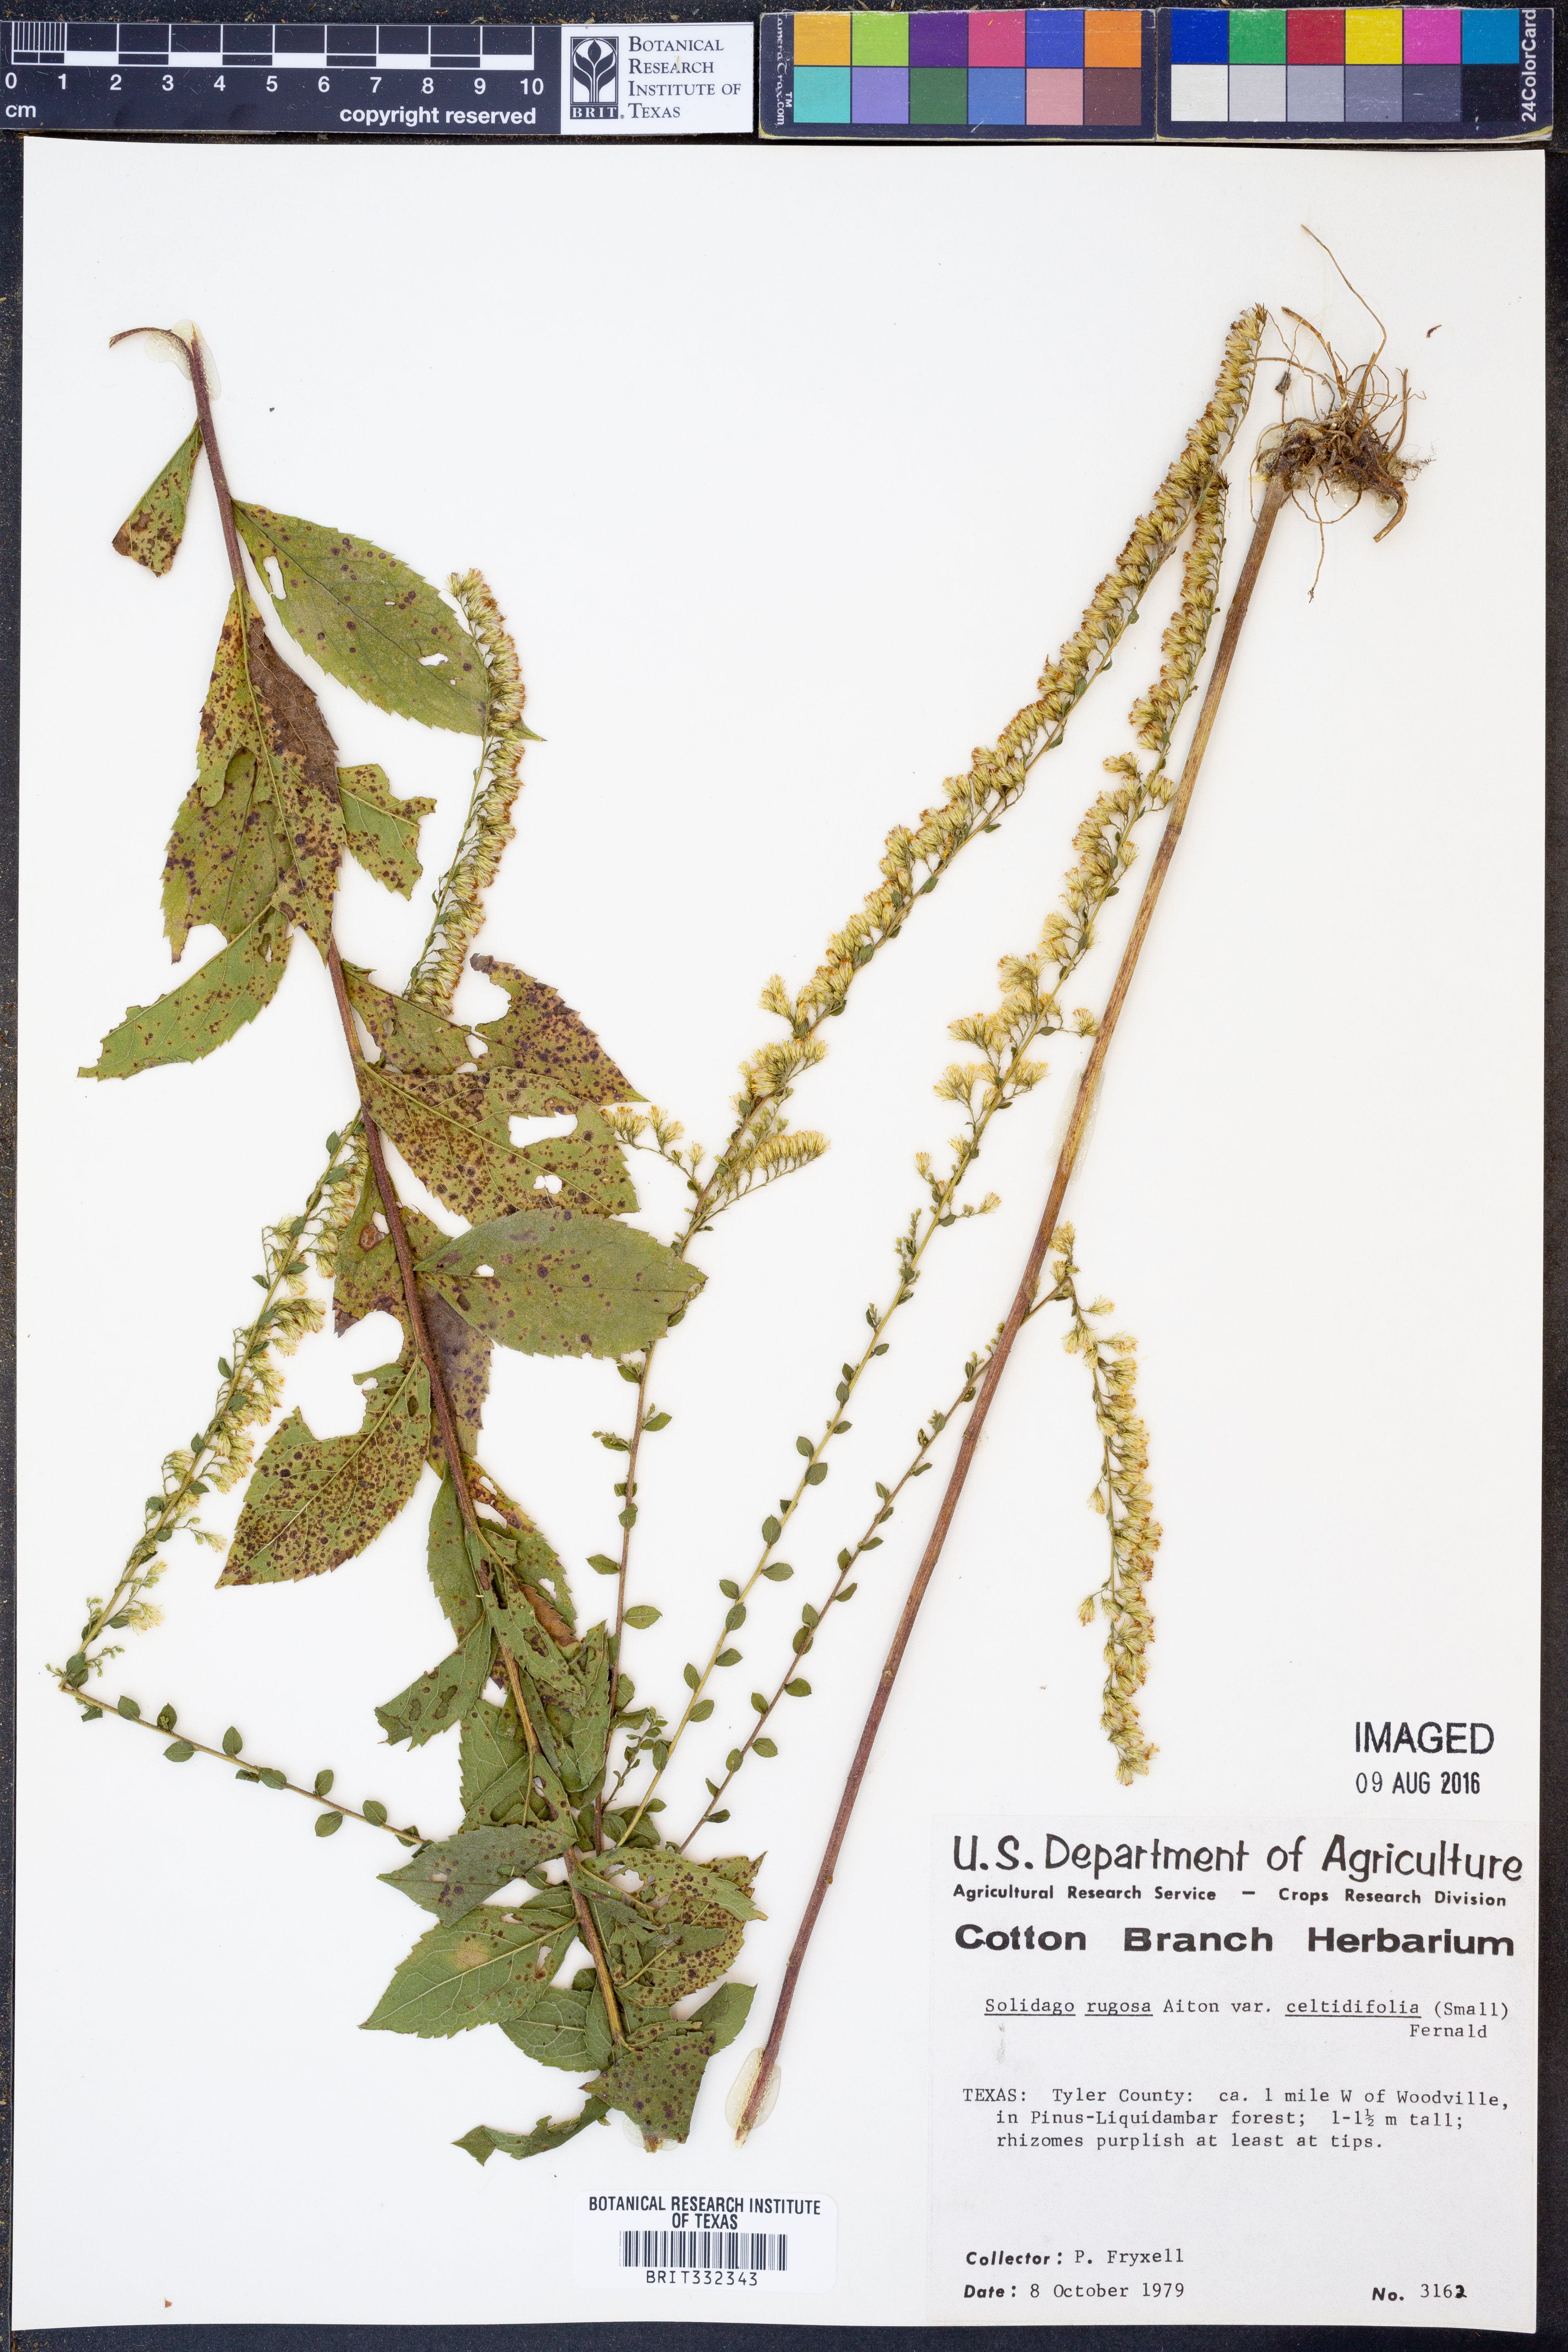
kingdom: Plantae
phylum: Tracheophyta
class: Magnoliopsida
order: Asterales
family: Asteraceae
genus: Solidago
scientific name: Solidago rugosa
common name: Rough-stemmed goldenrod
